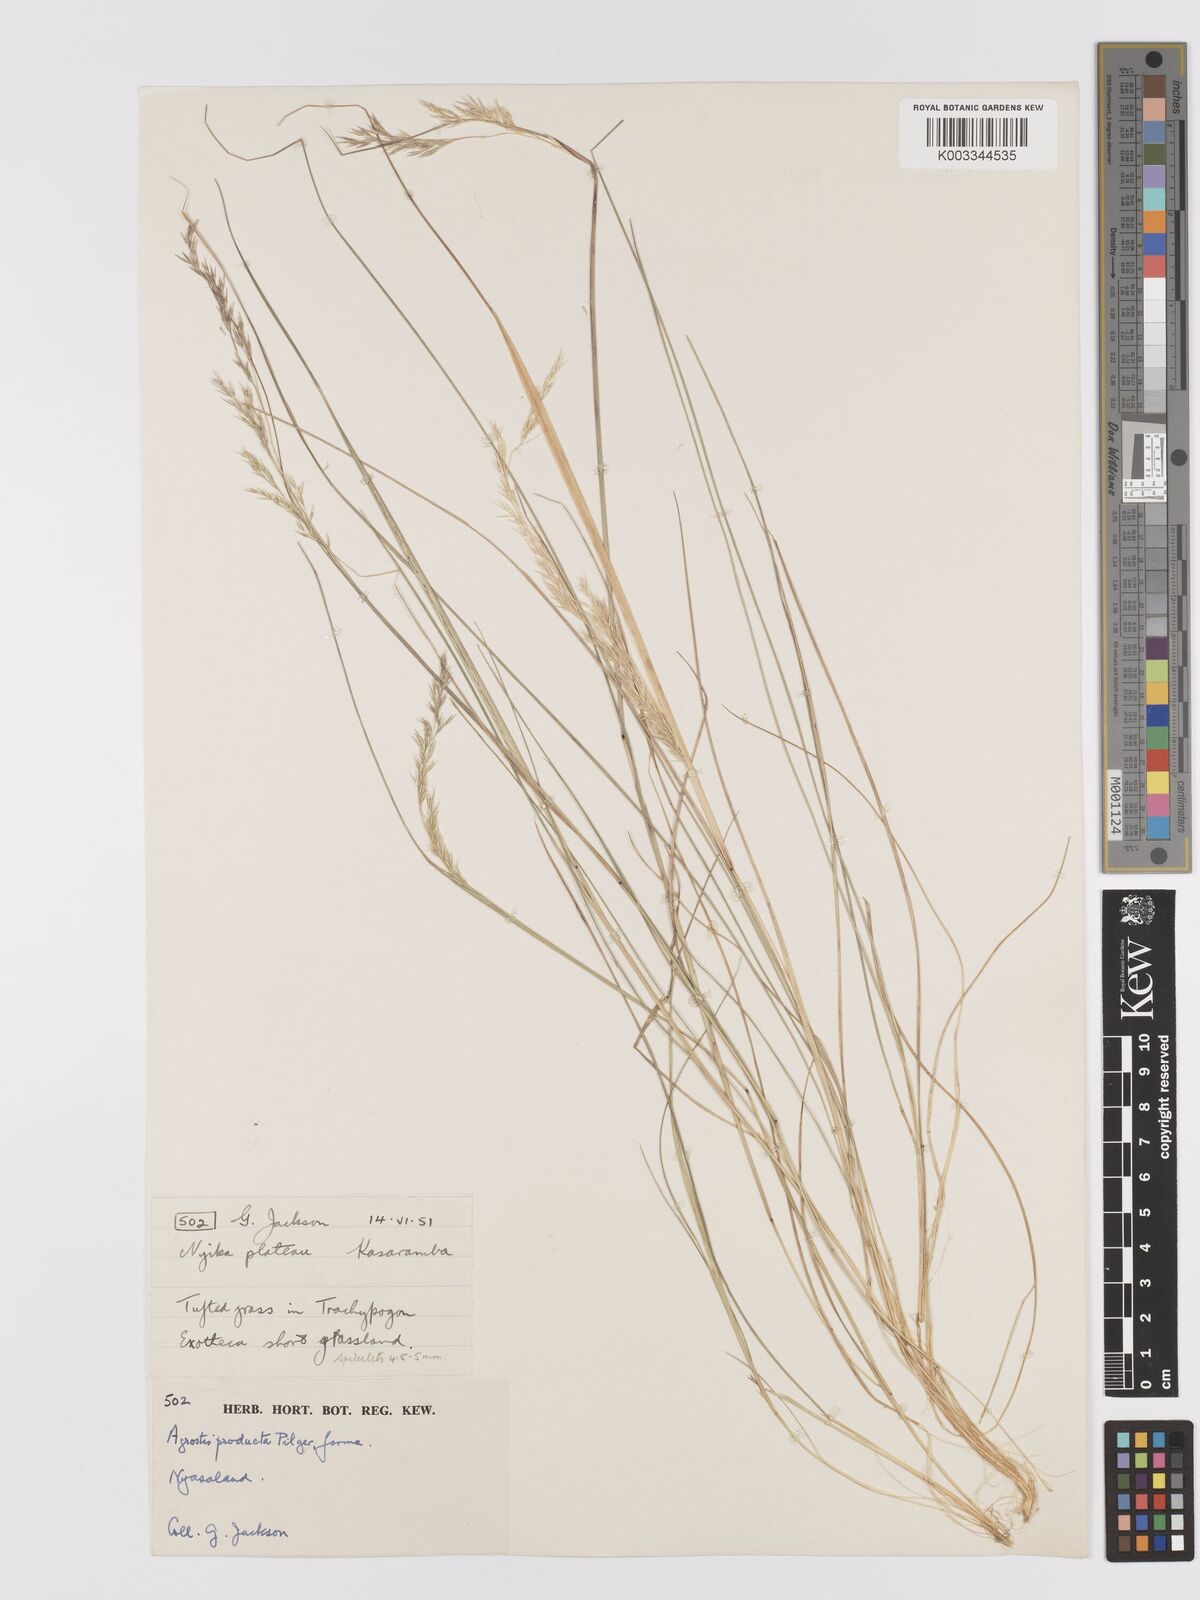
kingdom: Plantae
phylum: Tracheophyta
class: Liliopsida
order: Poales
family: Poaceae
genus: Agrostis
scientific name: Agrostis producta
